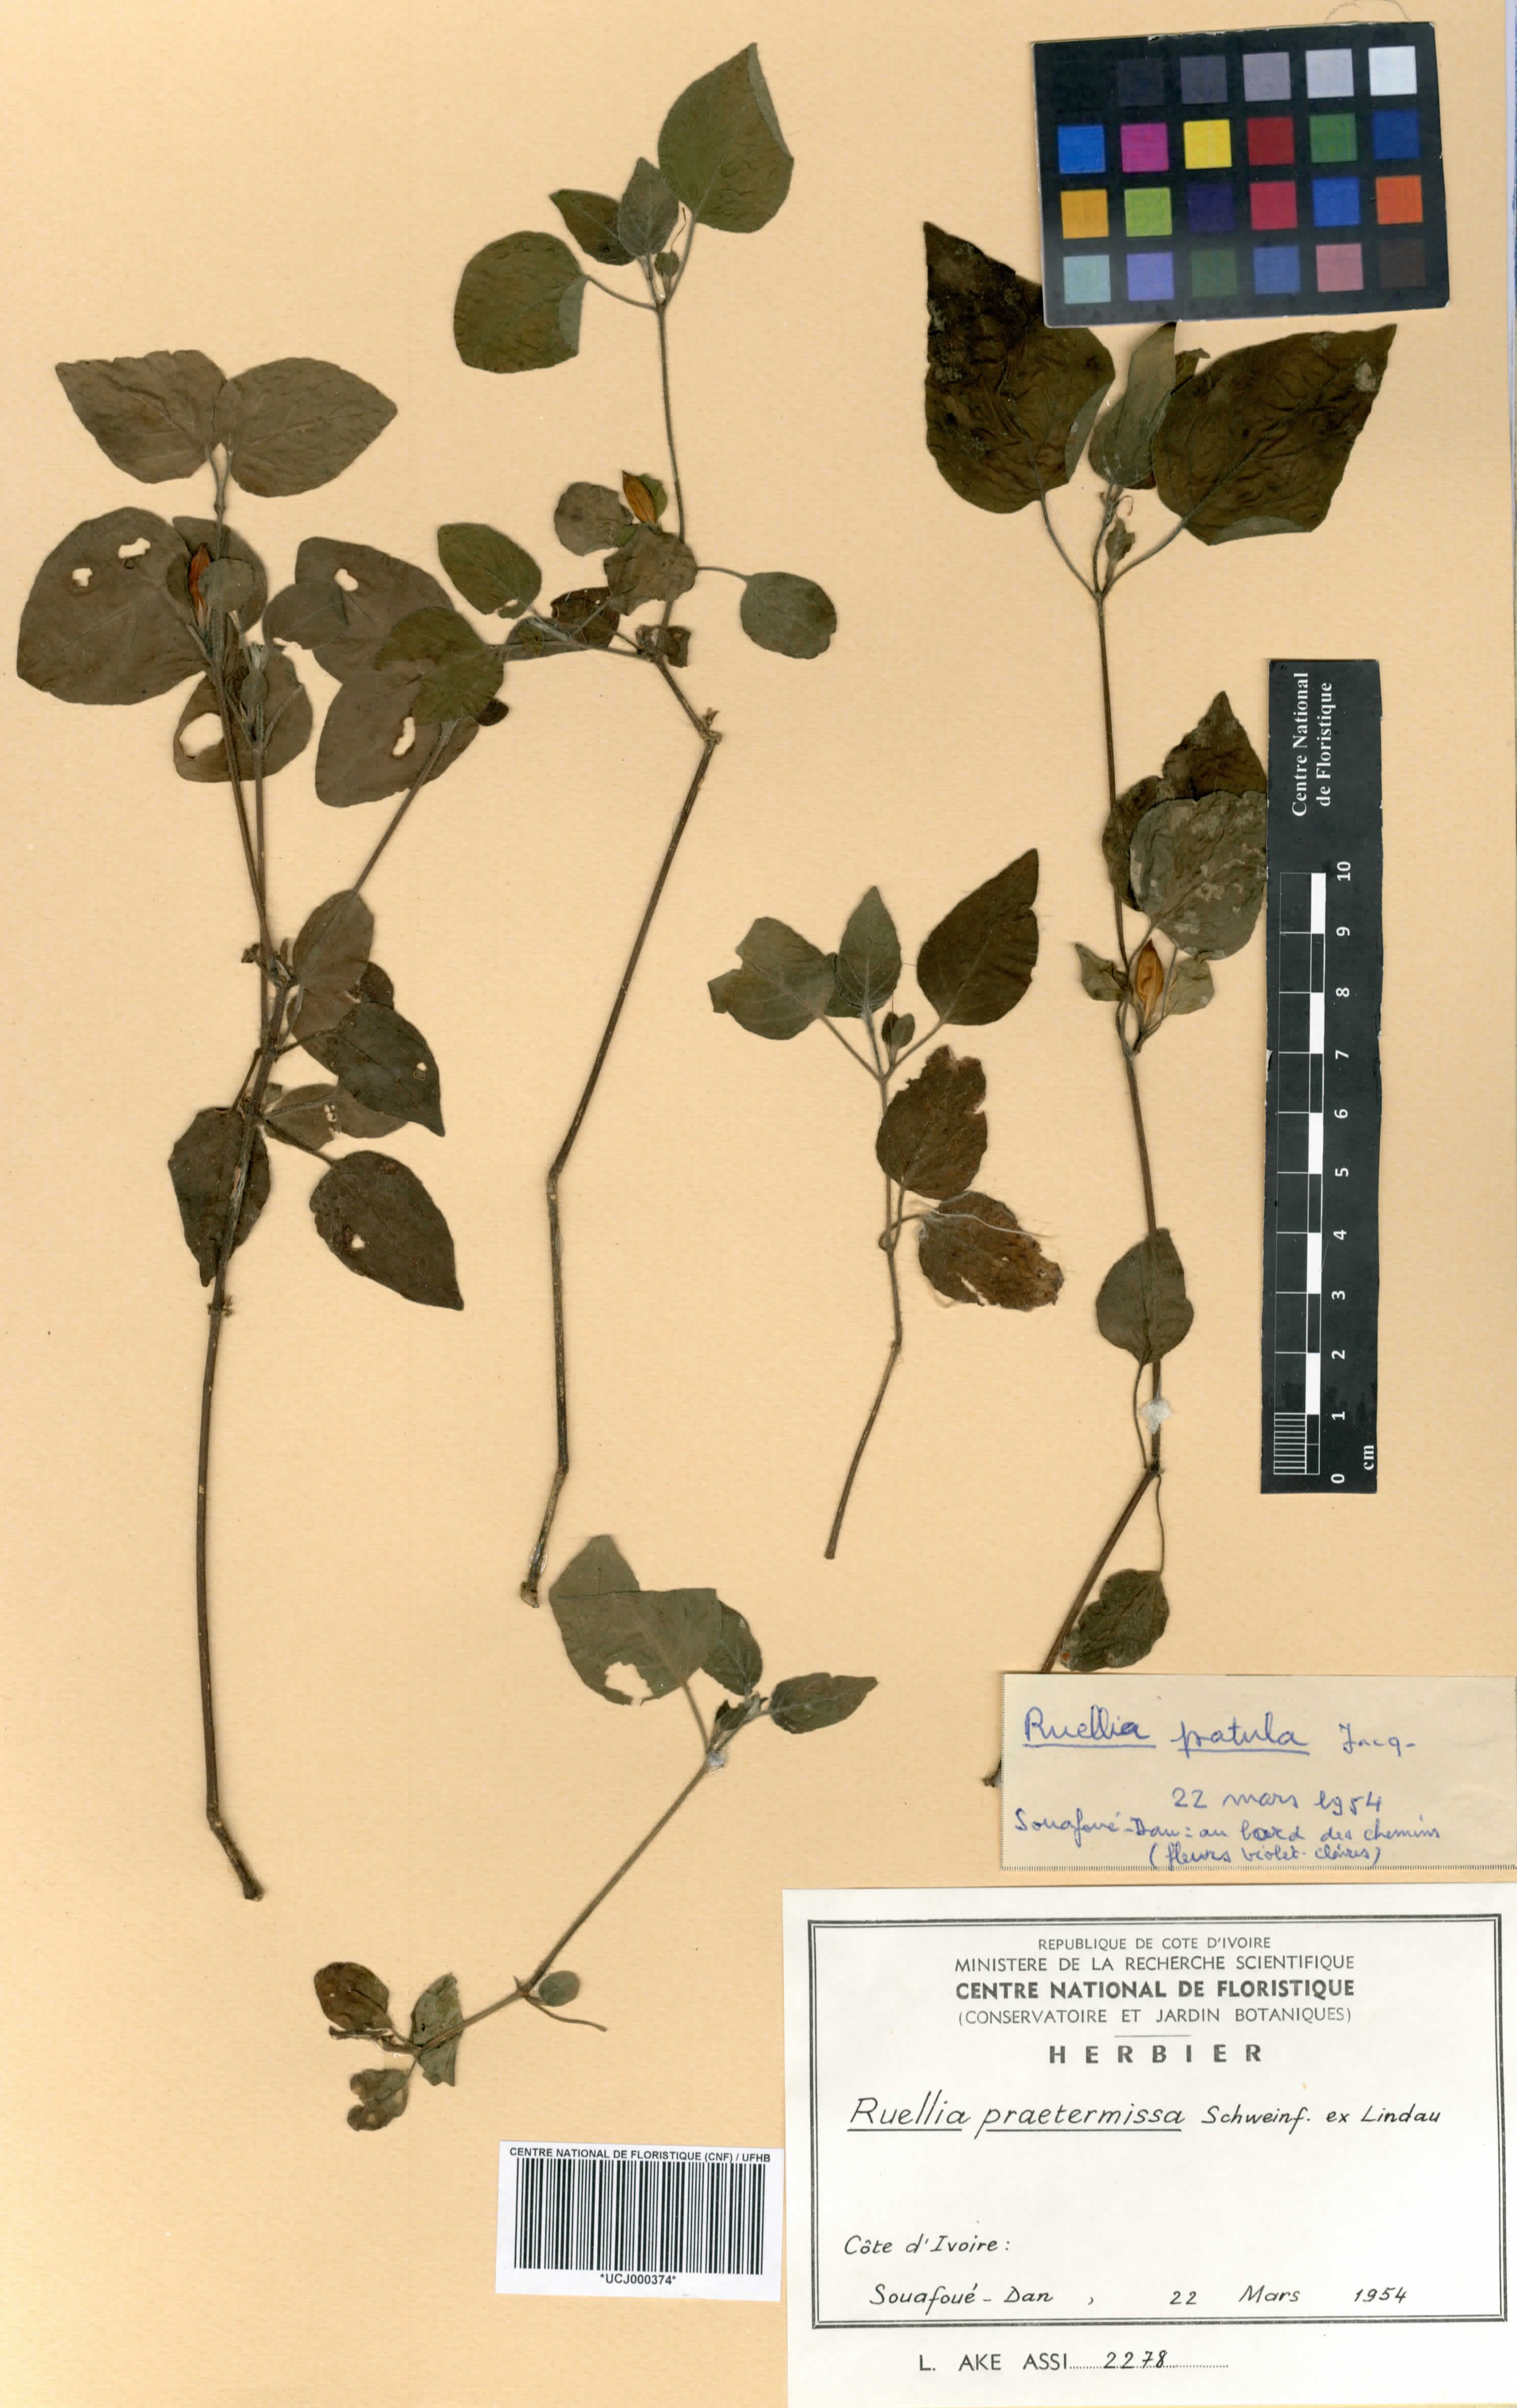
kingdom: Plantae
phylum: Tracheophyta
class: Magnoliopsida
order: Lamiales
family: Acanthaceae
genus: Ruellia
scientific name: Ruellia praetermissa
